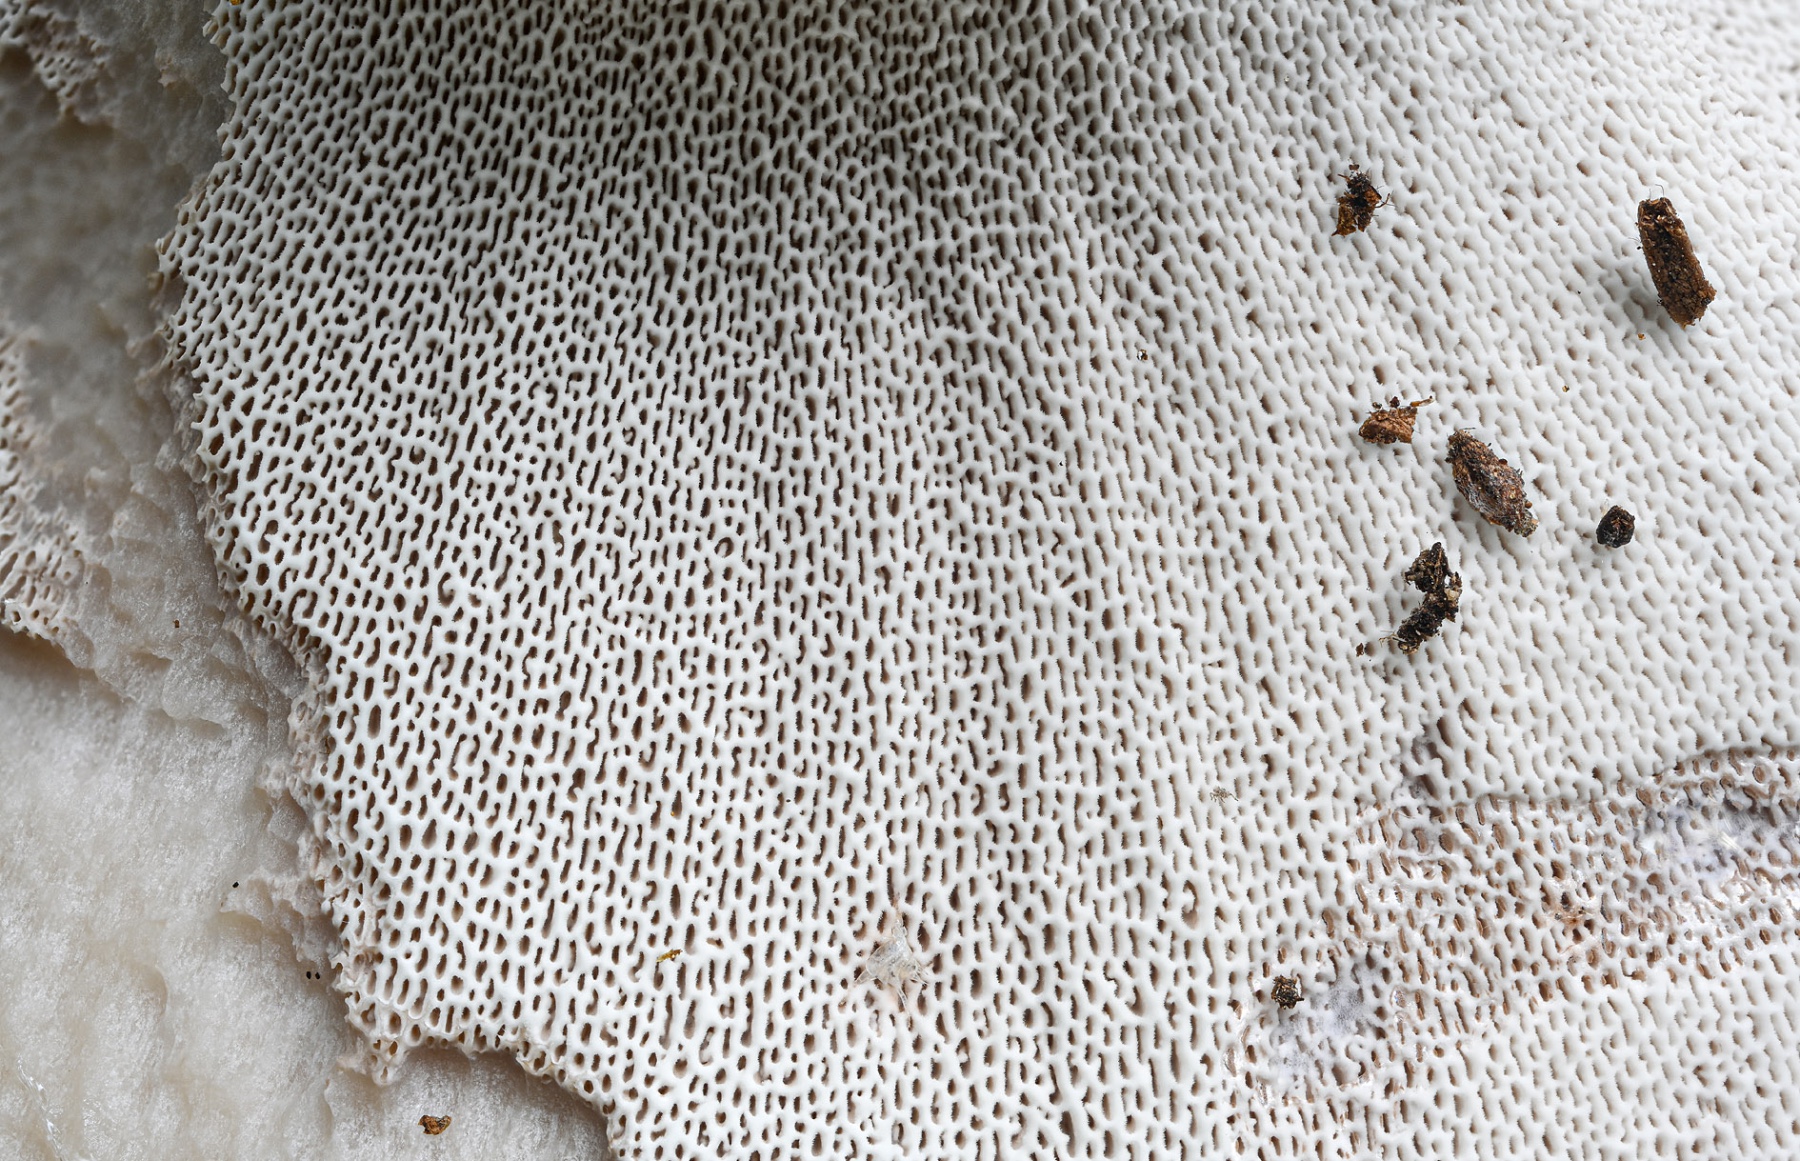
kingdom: Fungi
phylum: Basidiomycota
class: Agaricomycetes
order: Thelephorales
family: Bankeraceae
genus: Boletopsis
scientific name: Boletopsis leucomelaena
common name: sorthvid troldporesvamp
